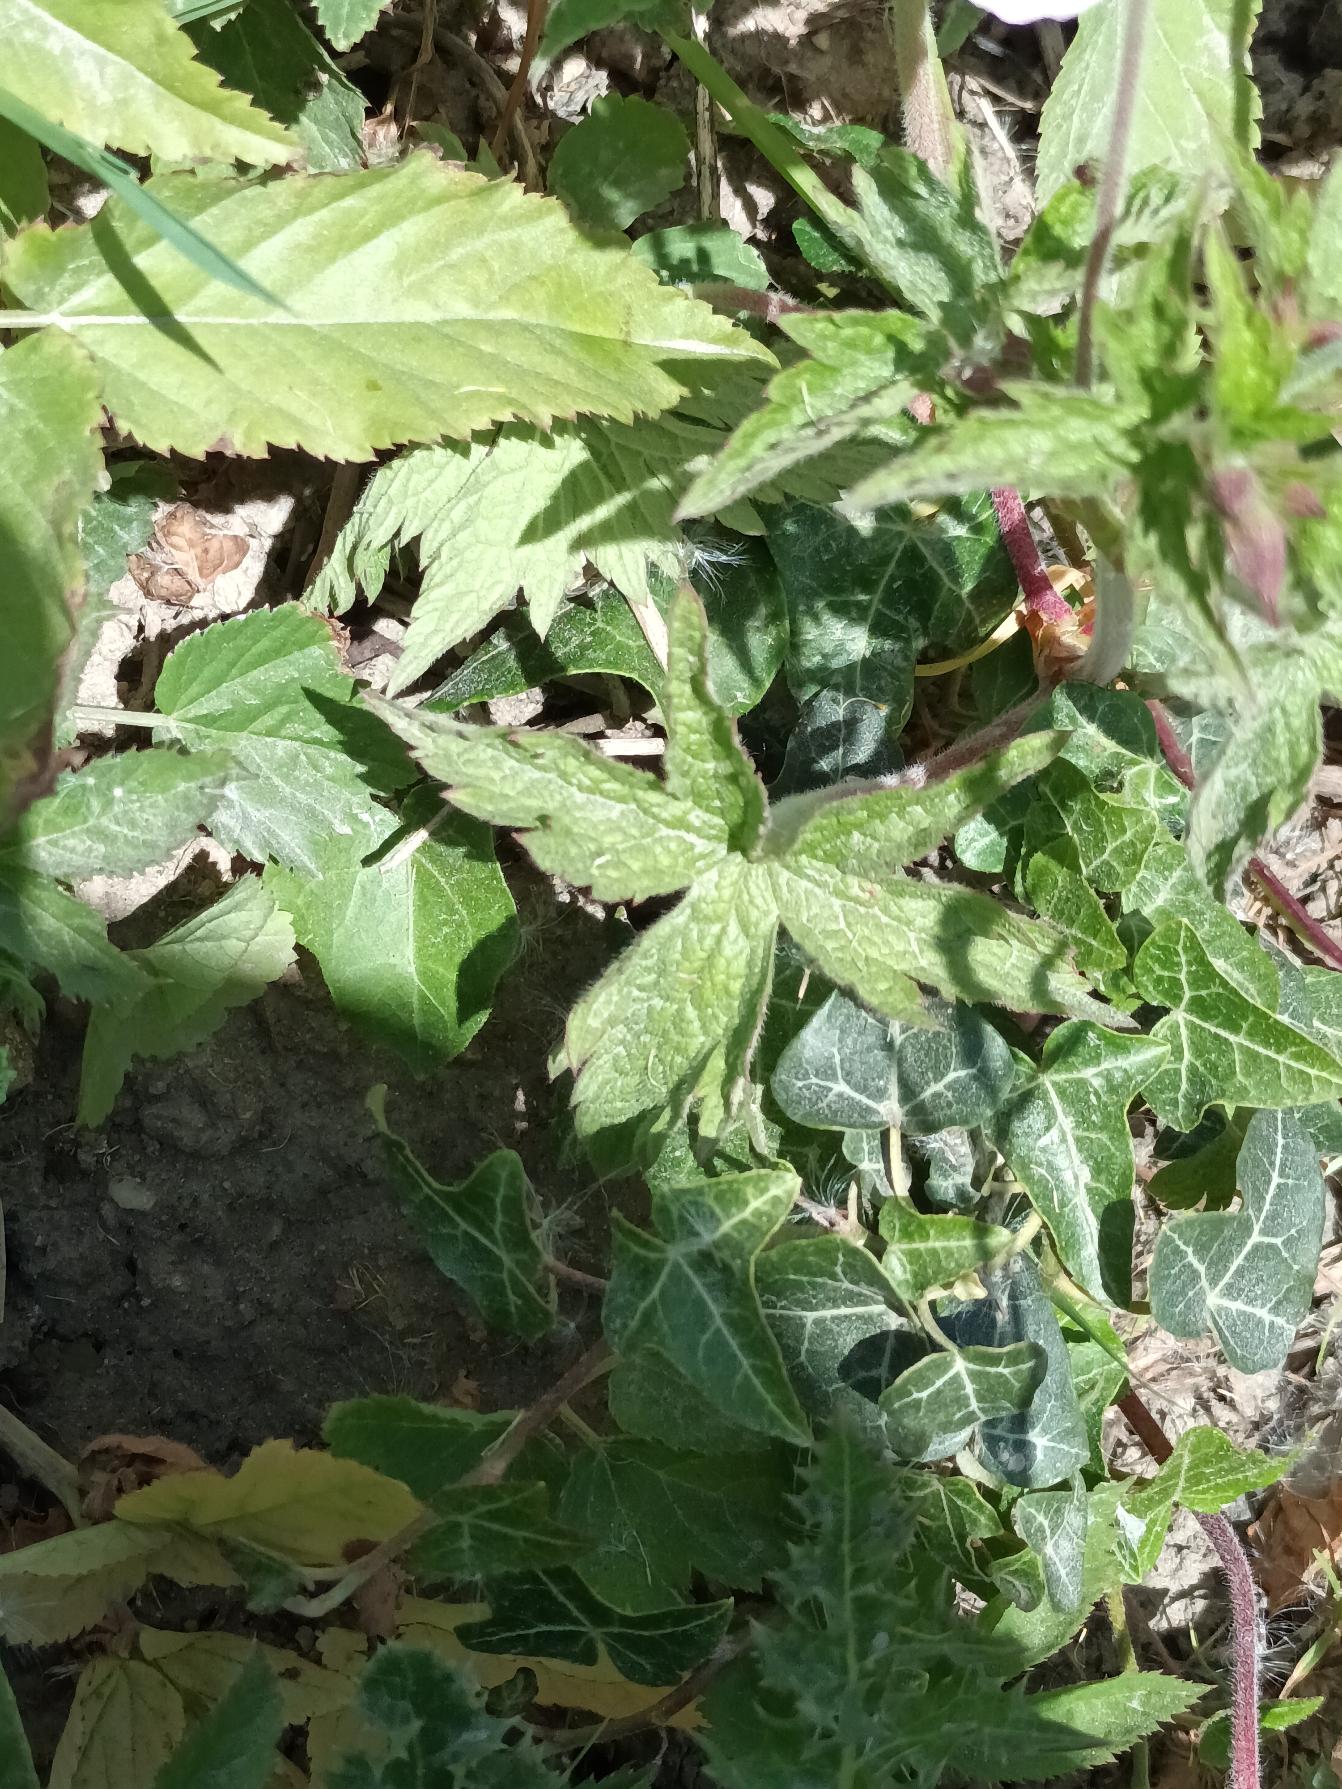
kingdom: Plantae
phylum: Tracheophyta
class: Magnoliopsida
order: Geraniales
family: Geraniaceae
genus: Geranium
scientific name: Geranium versicolor
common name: Året storkenæb
